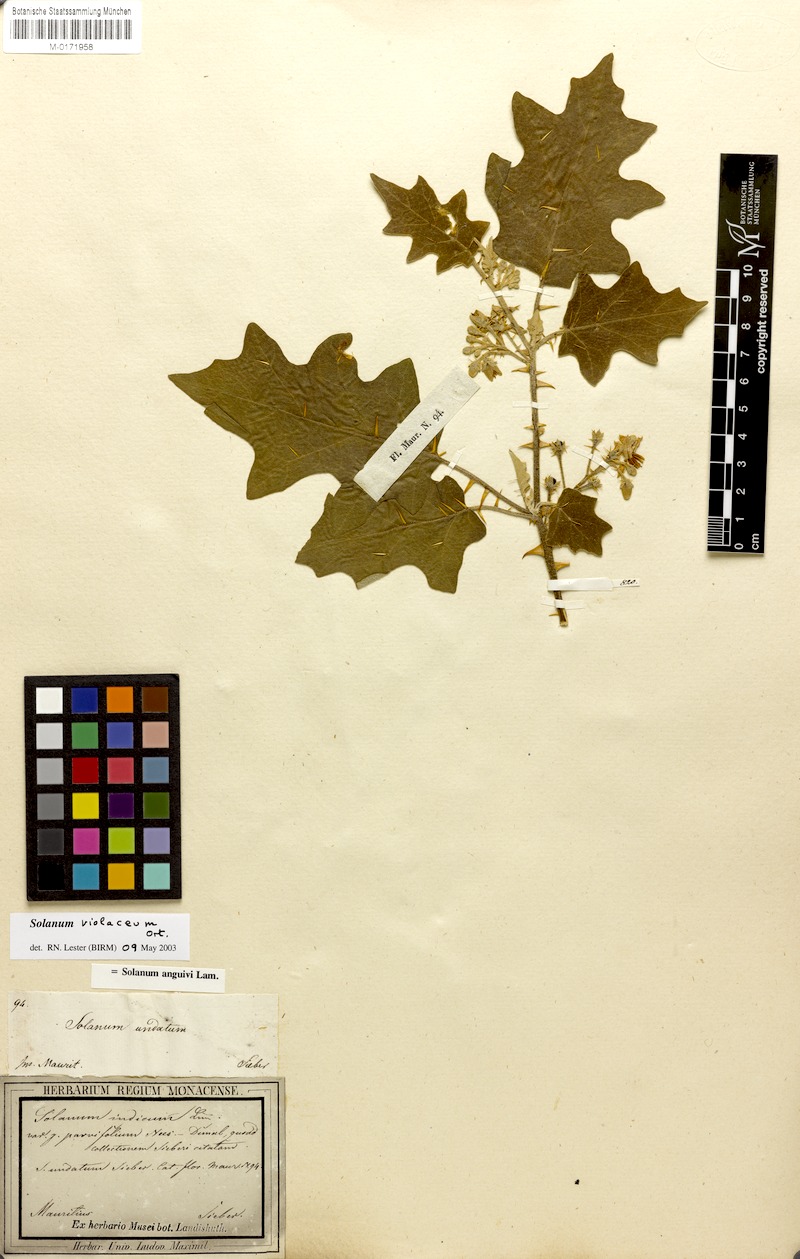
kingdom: Plantae
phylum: Tracheophyta
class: Magnoliopsida
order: Solanales
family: Solanaceae
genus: Solanum
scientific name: Solanum violaceum
